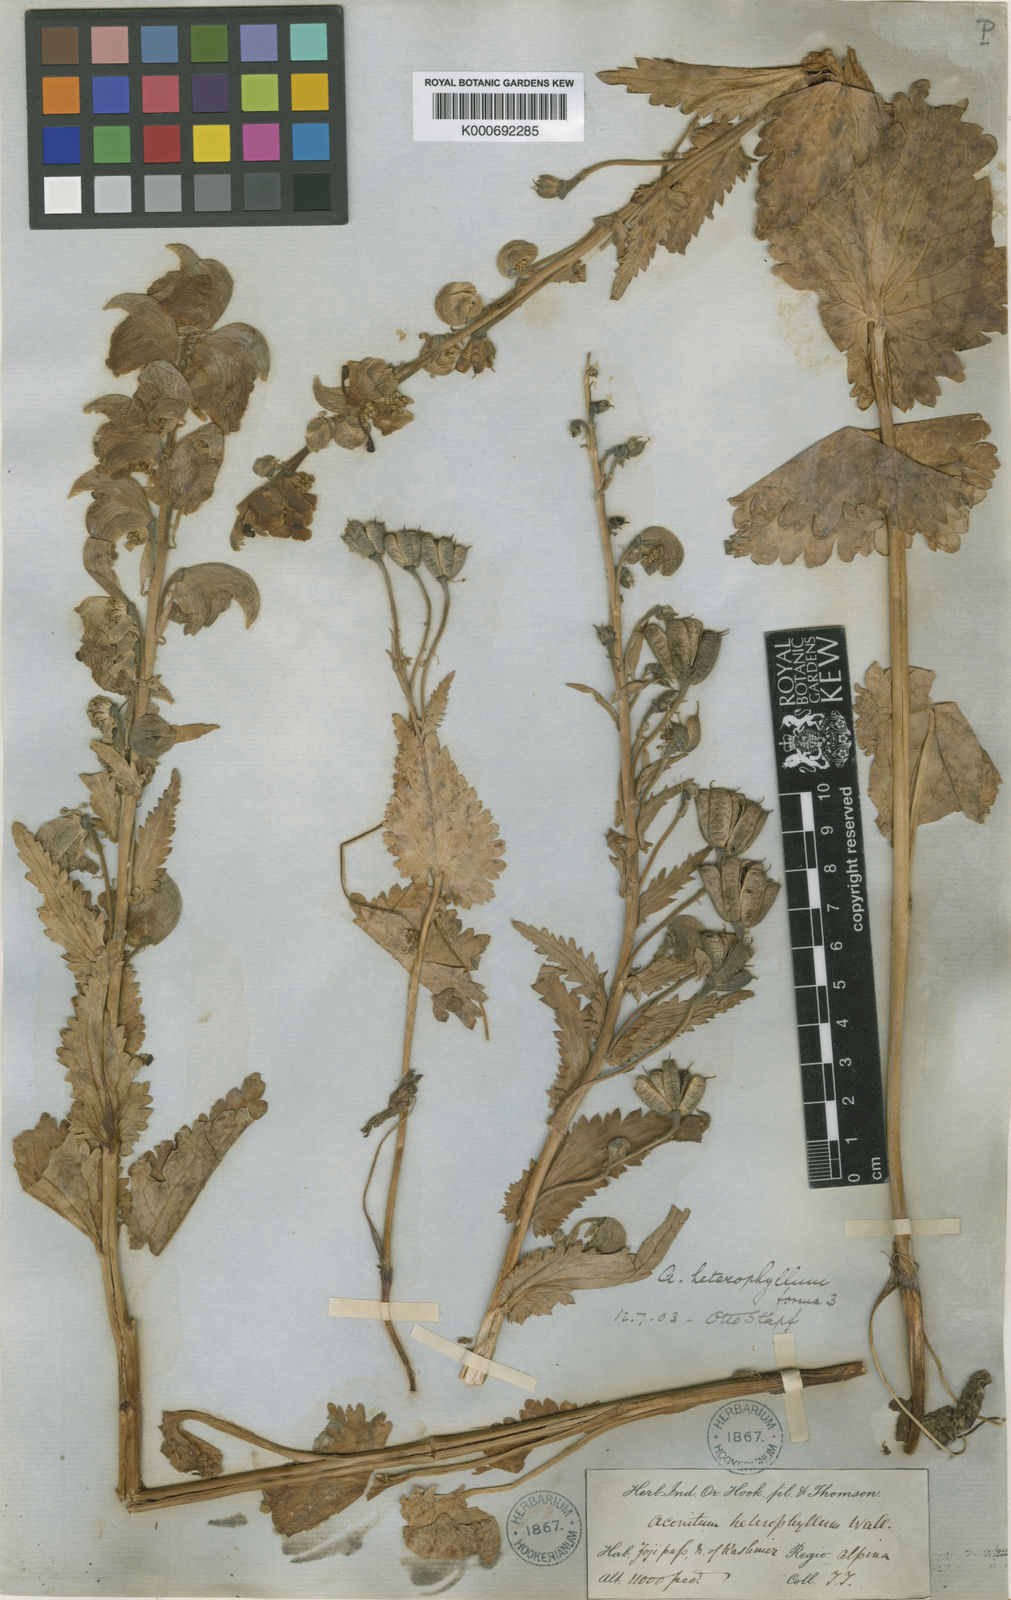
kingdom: Plantae
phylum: Tracheophyta
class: Magnoliopsida
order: Ranunculales
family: Ranunculaceae
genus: Aconitum
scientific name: Aconitum heterophyllum
